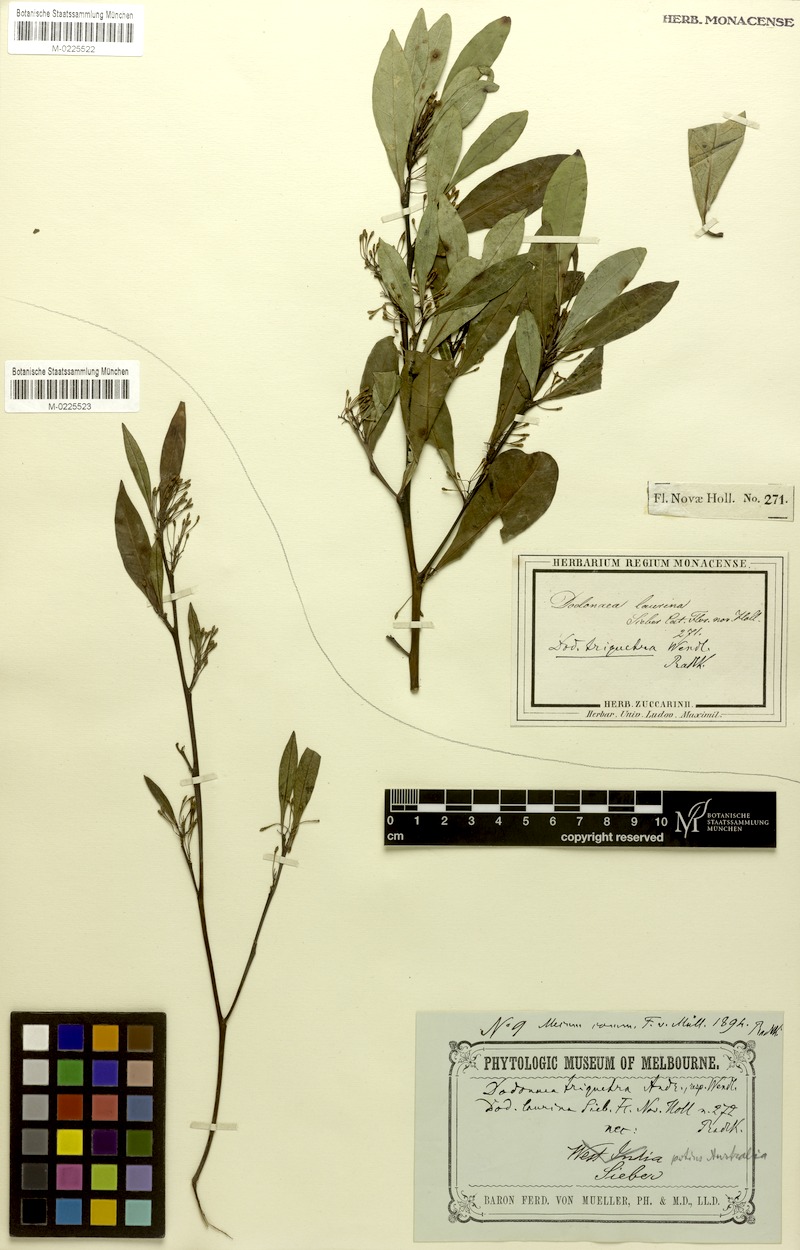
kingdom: Plantae
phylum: Tracheophyta
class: Magnoliopsida
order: Sapindales
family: Sapindaceae
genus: Dodonaea
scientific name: Dodonaea triquetra
